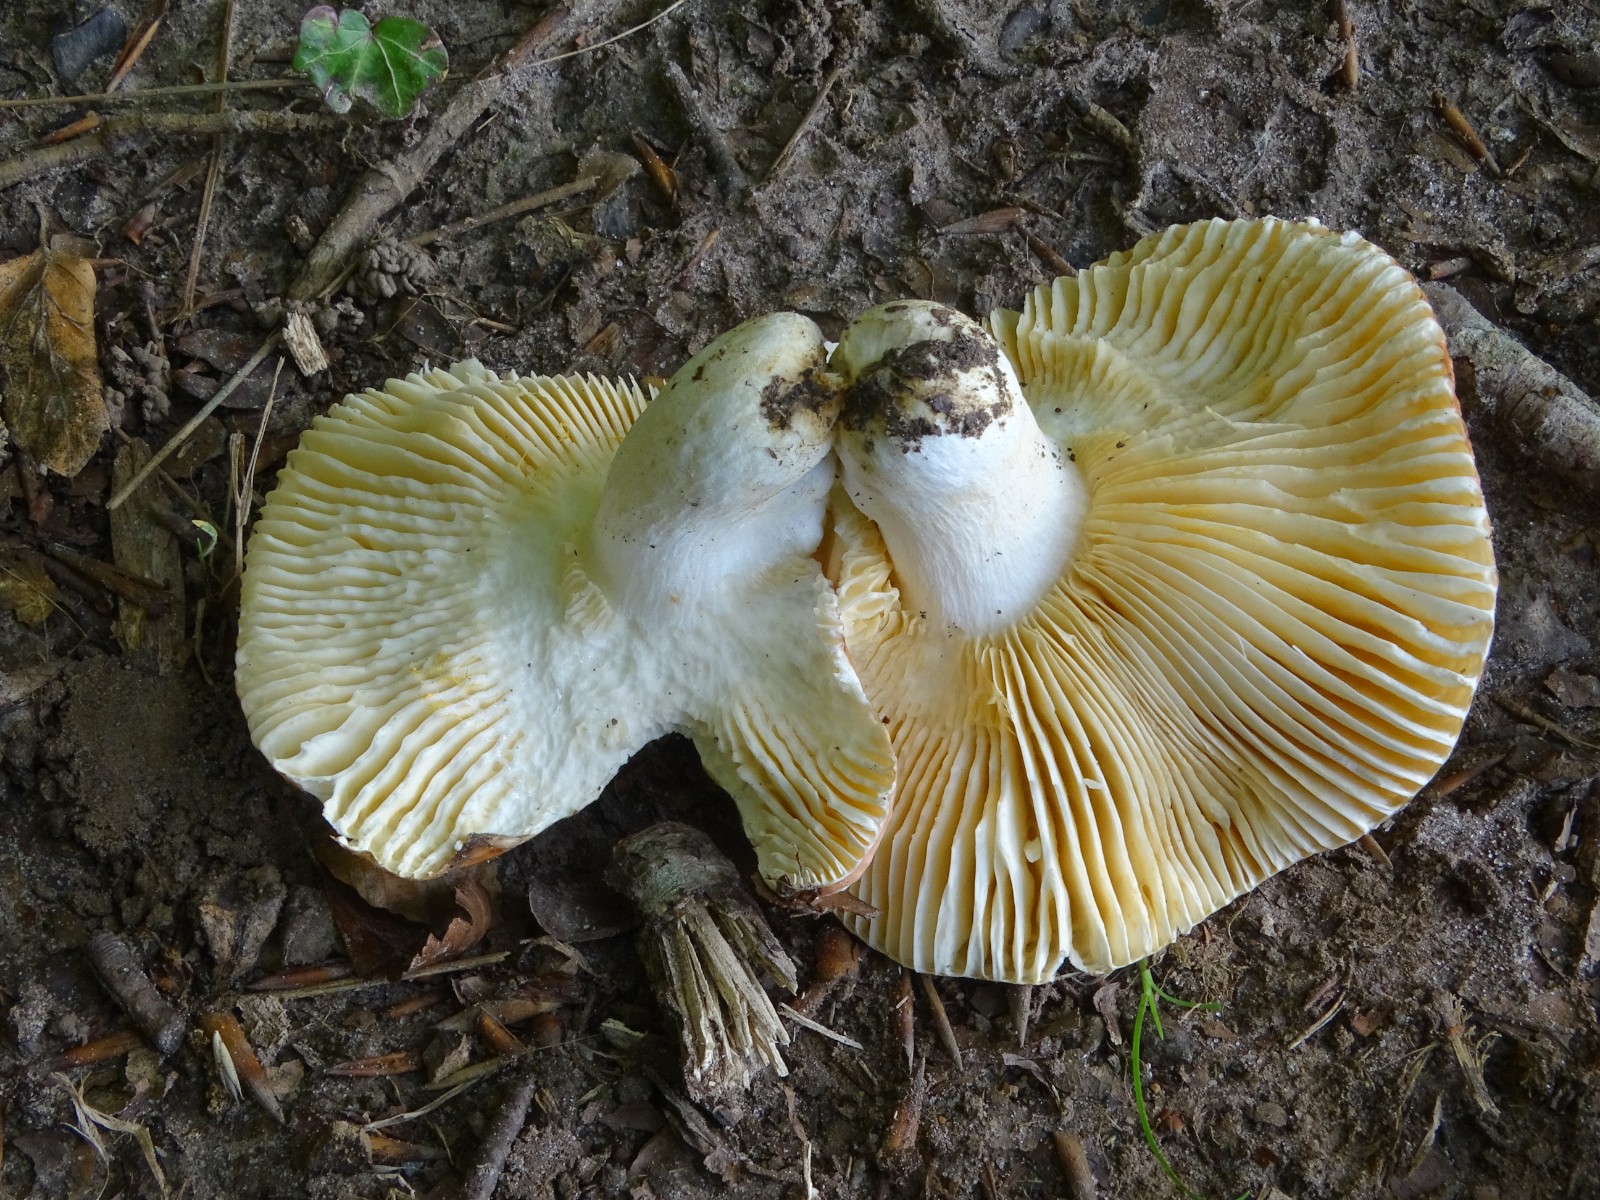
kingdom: Fungi
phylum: Basidiomycota
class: Agaricomycetes
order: Russulales
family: Russulaceae
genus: Russula
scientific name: Russula laeta
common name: orangerosa skørhat
